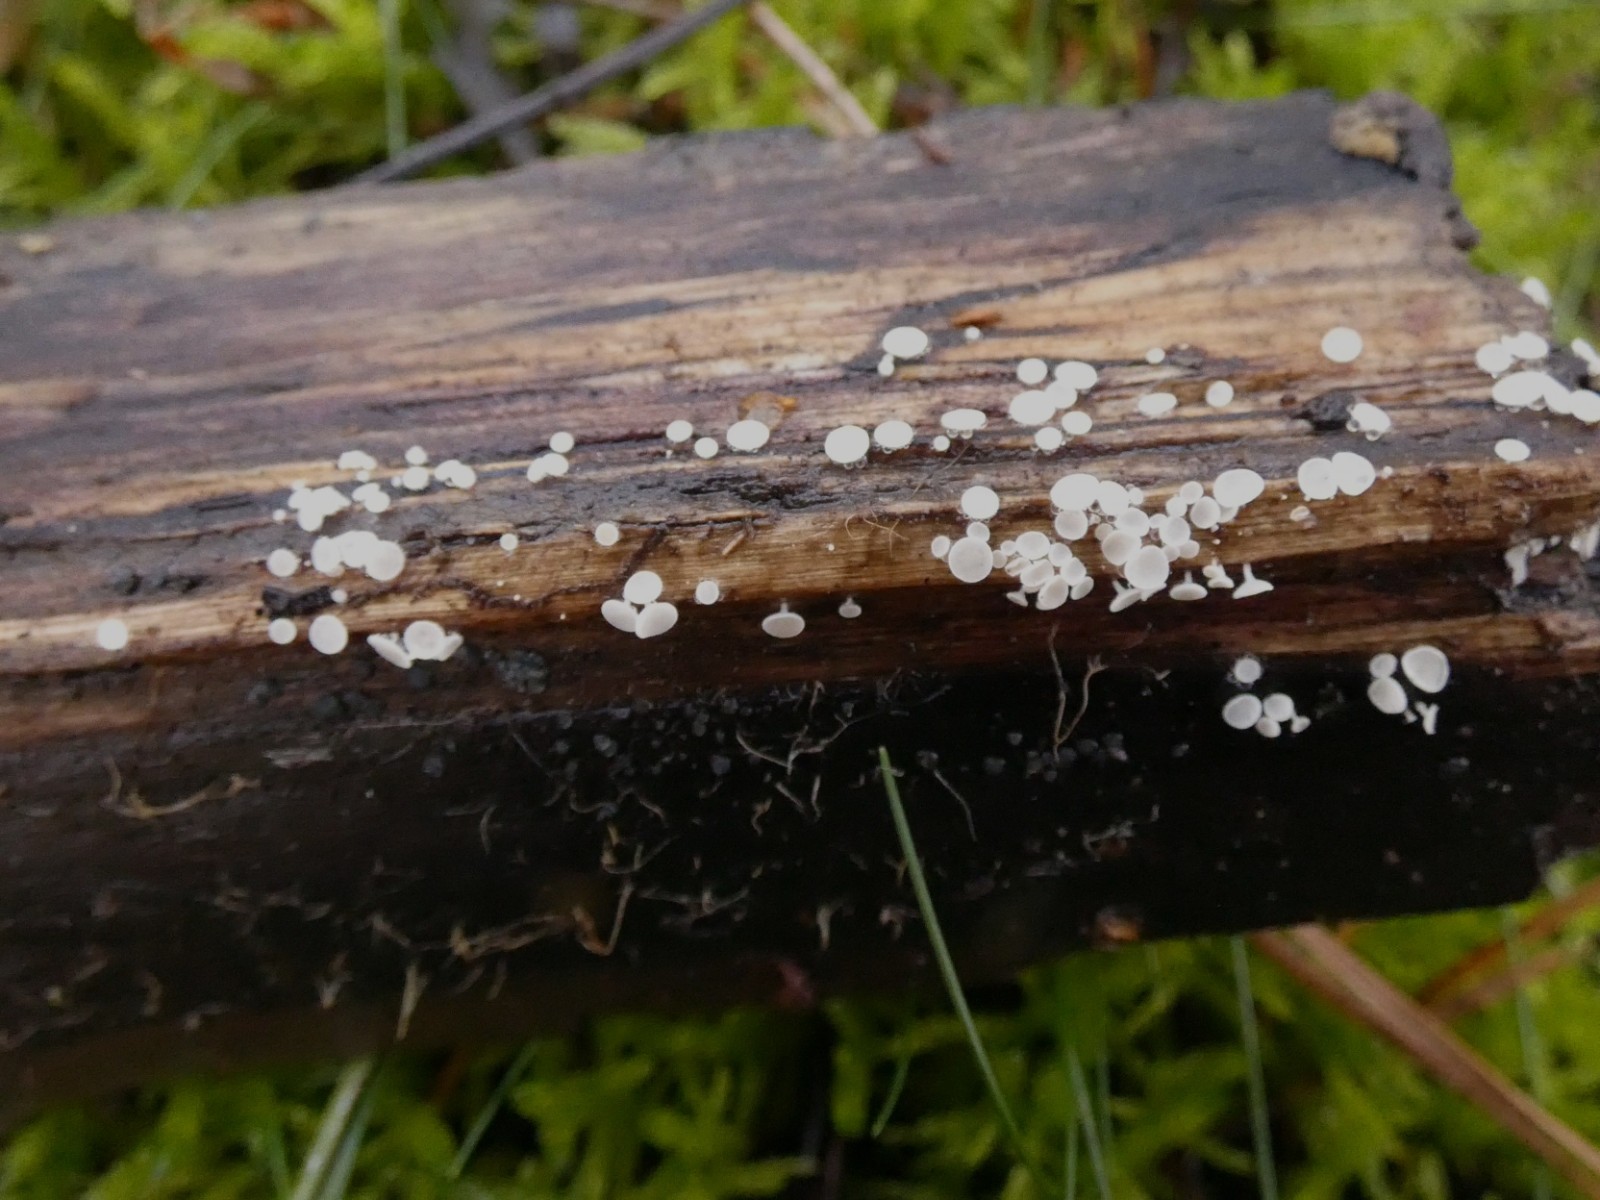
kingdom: Fungi
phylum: Ascomycota
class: Leotiomycetes
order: Helotiales
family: Lachnaceae
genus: Lachnum
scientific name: Lachnum impudicum
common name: vinter-frynseskive
